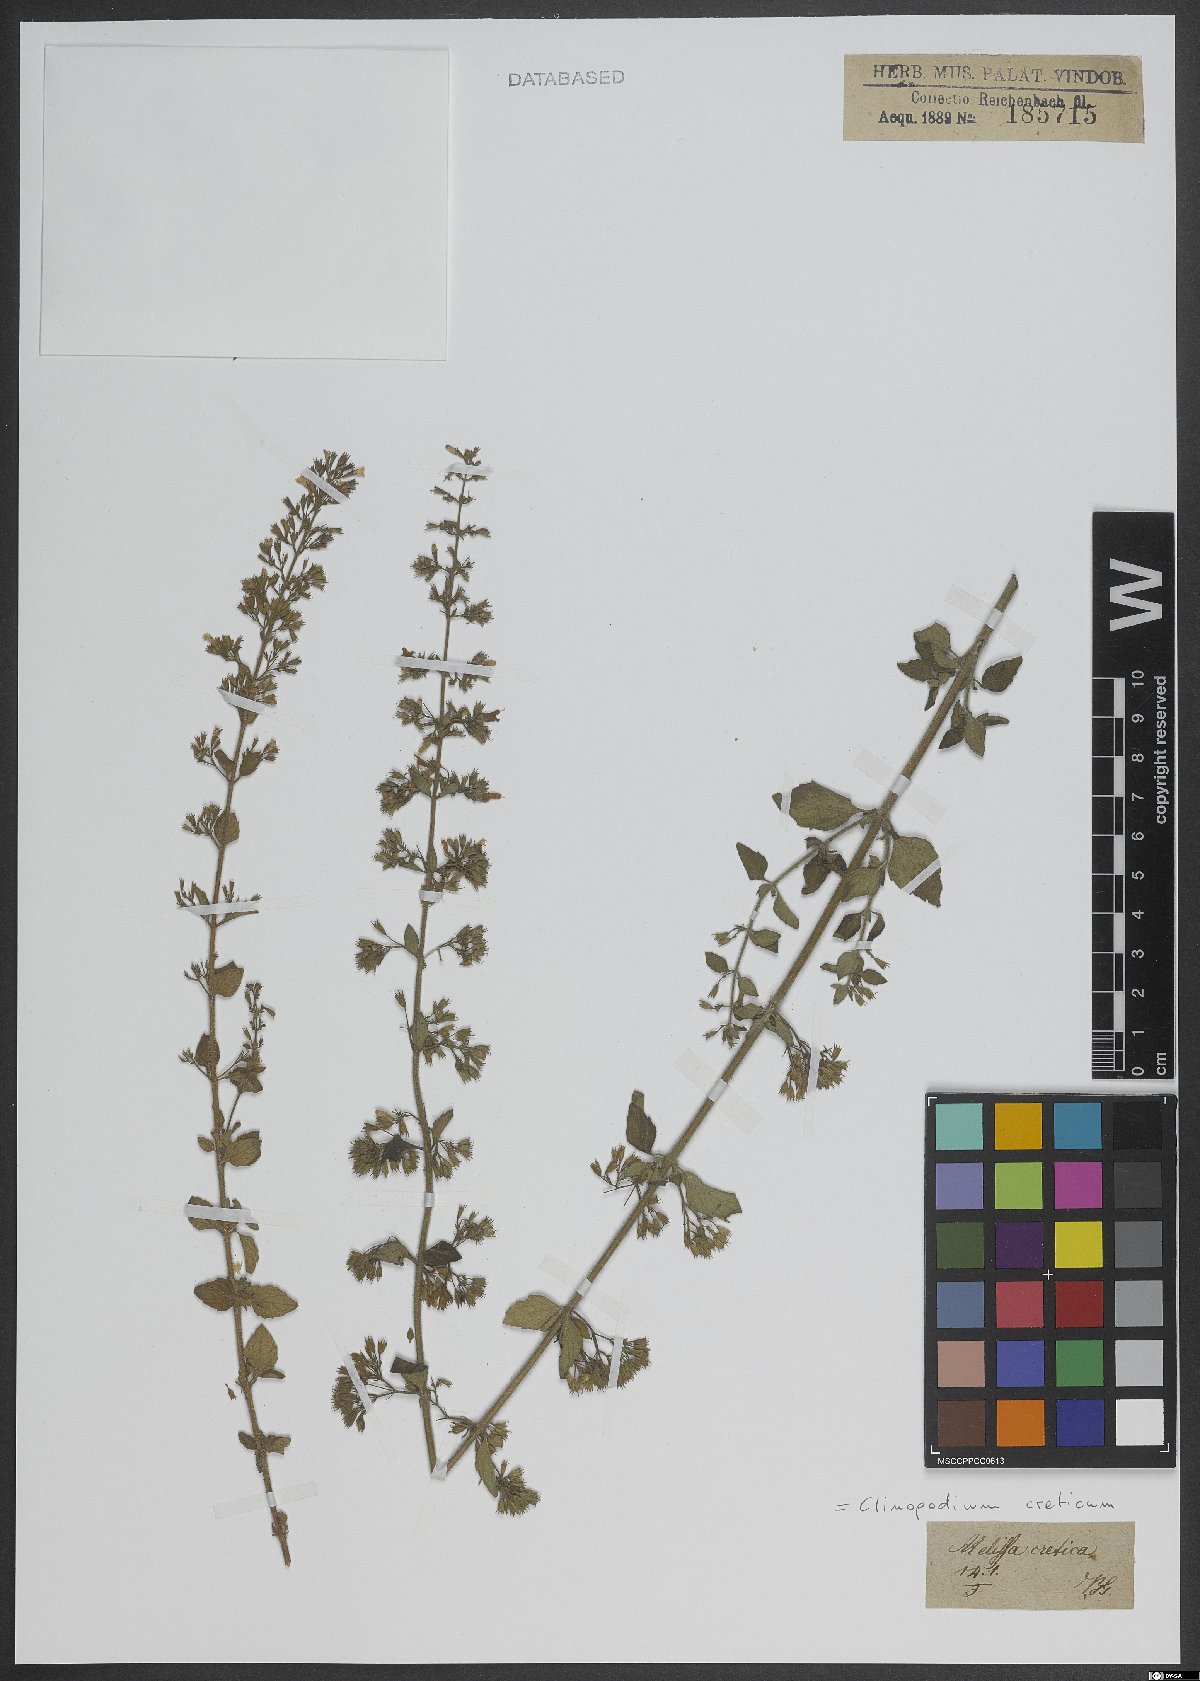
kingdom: Plantae
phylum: Tracheophyta
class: Magnoliopsida
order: Lamiales
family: Lamiaceae
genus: Clinopodium
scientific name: Clinopodium creticum
